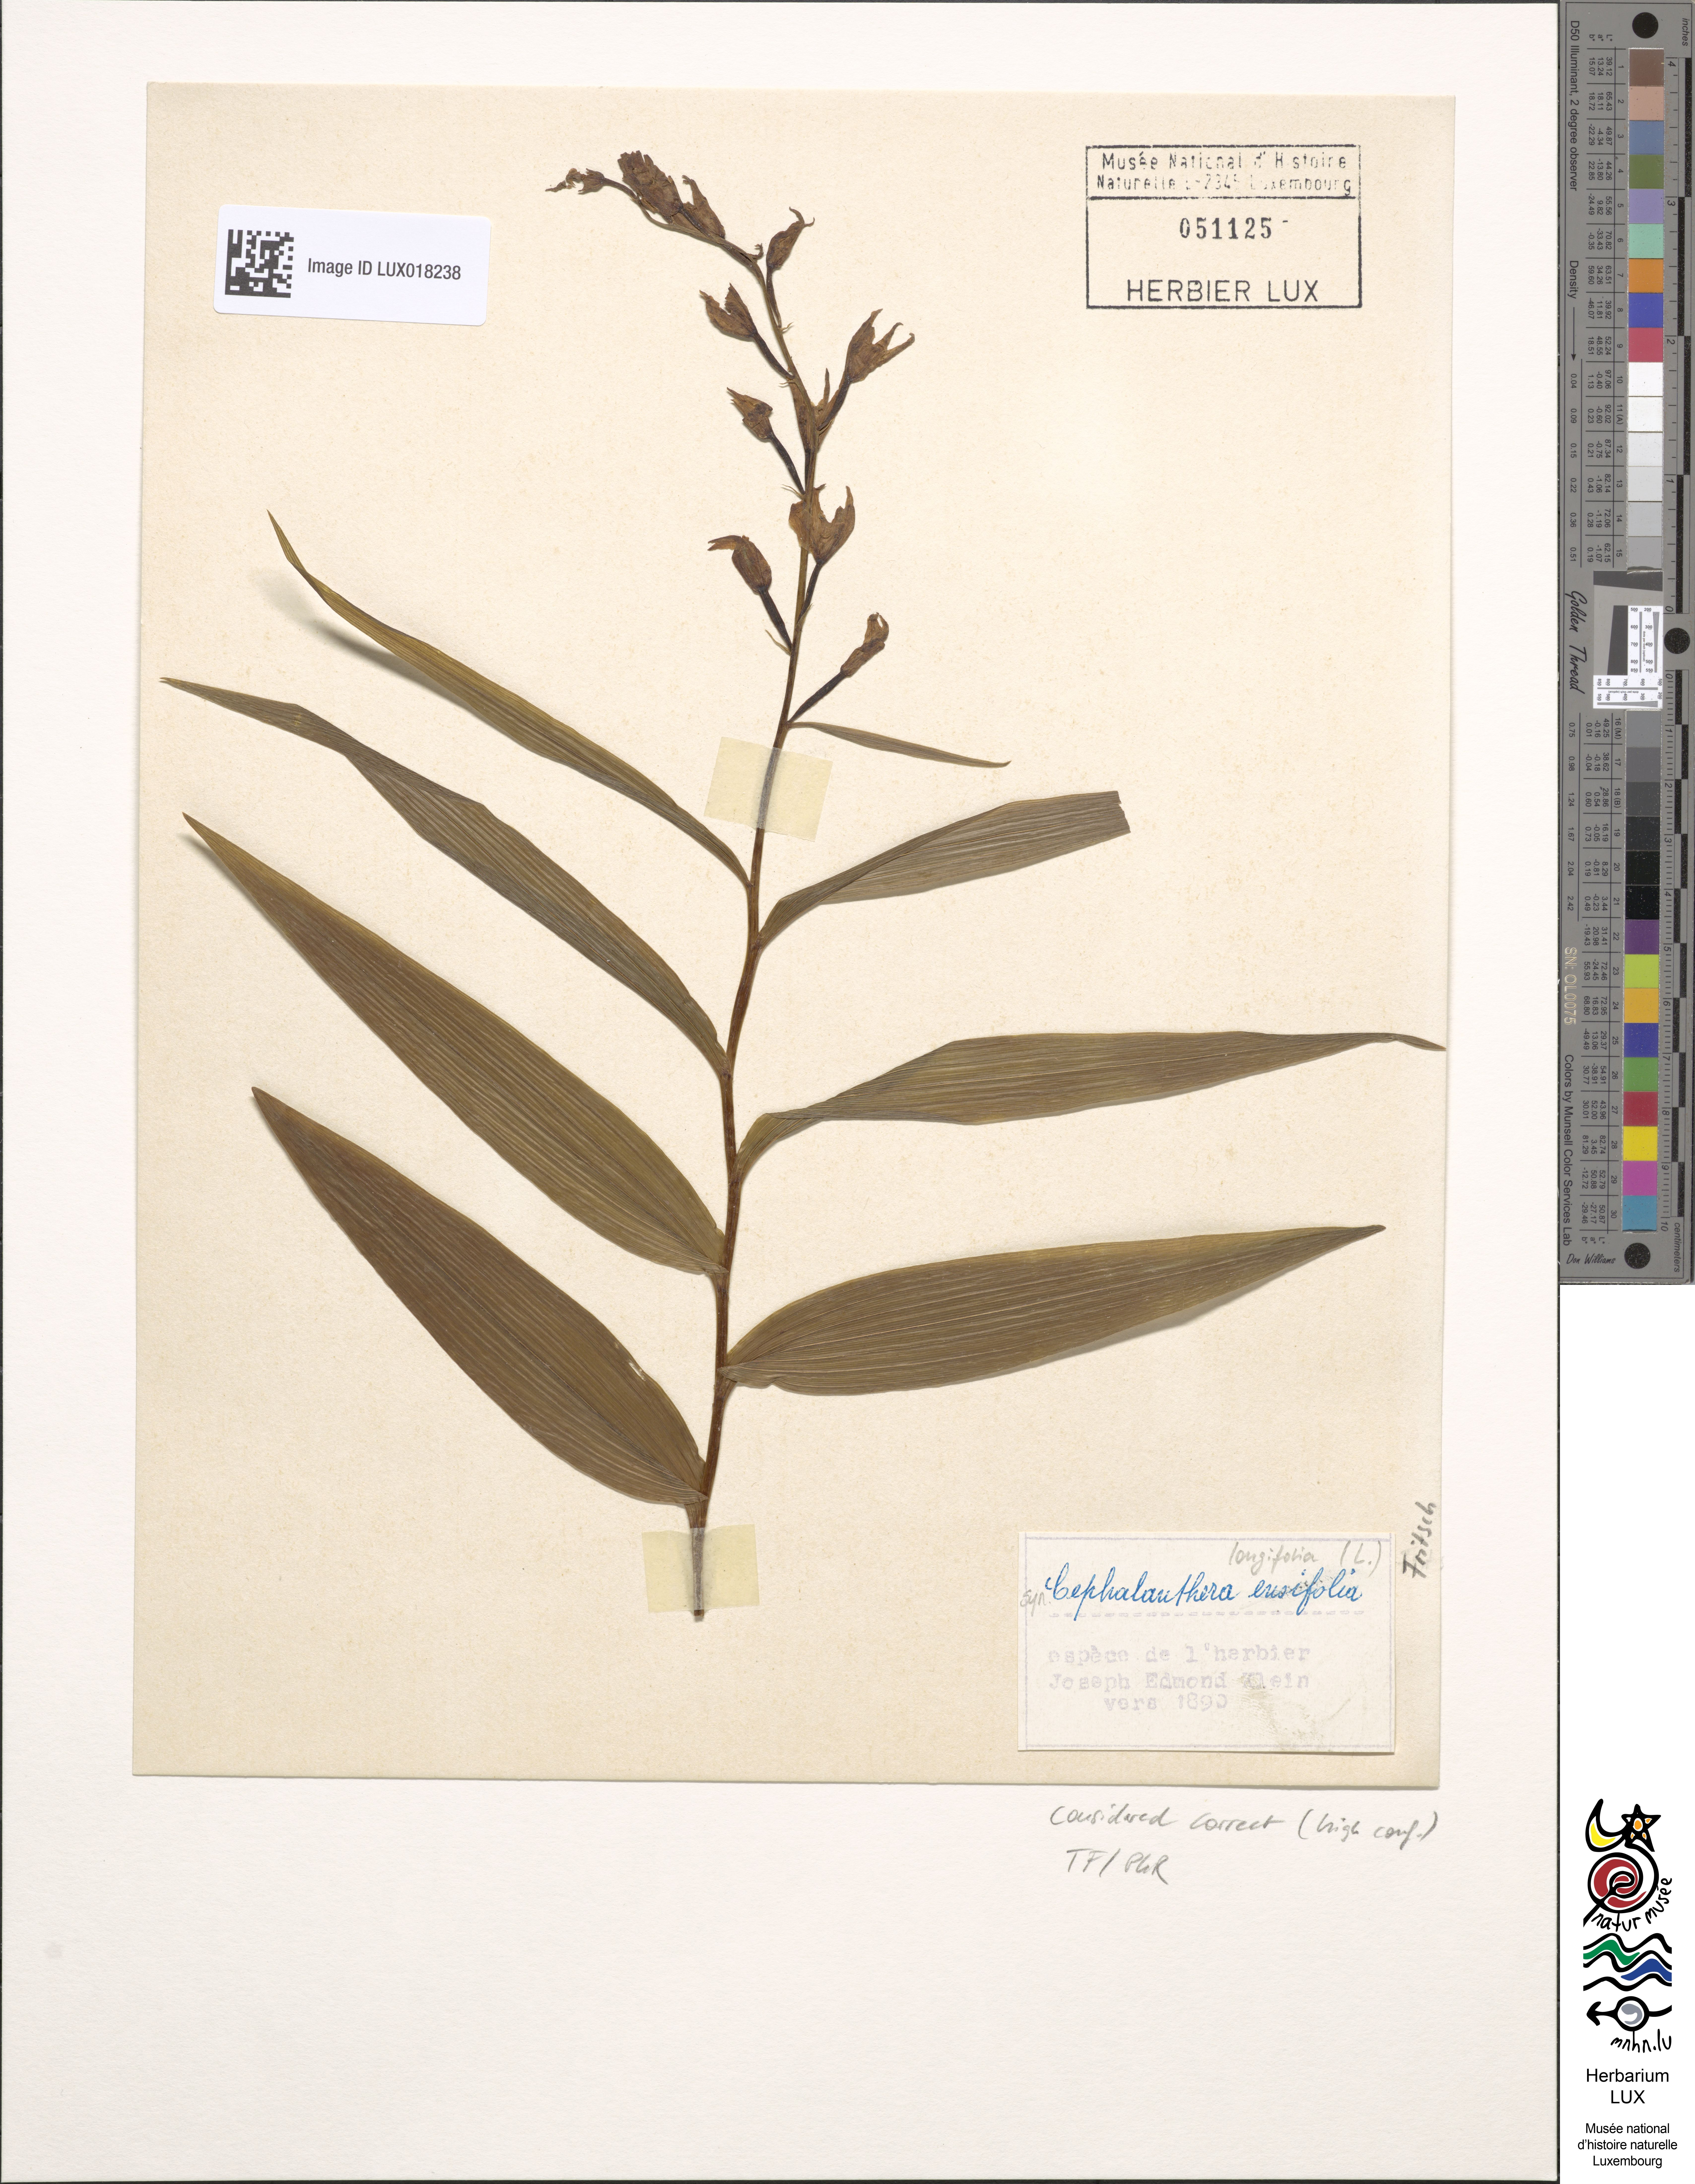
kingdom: Plantae
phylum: Tracheophyta
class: Liliopsida
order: Asparagales
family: Orchidaceae
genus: Cephalanthera
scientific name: Cephalanthera longifolia
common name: Narrow-leaved helleborine
